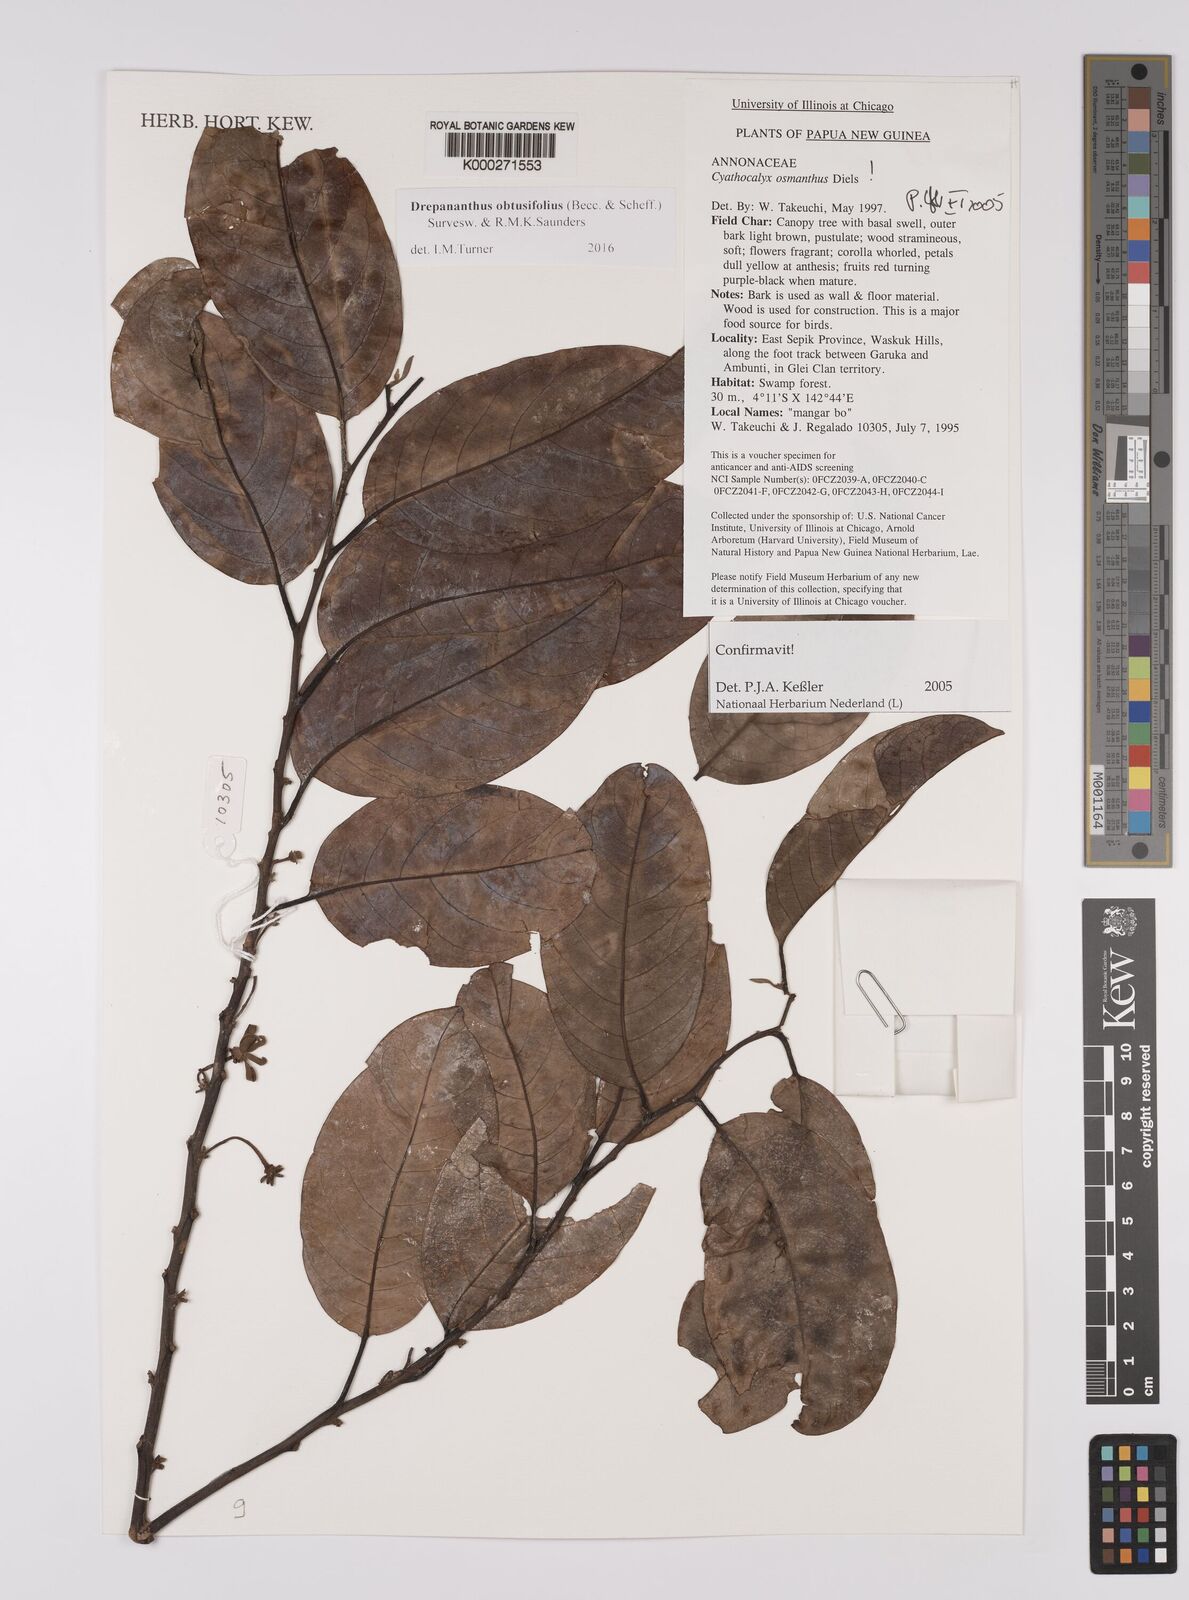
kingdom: Plantae
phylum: Tracheophyta
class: Magnoliopsida
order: Magnoliales
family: Annonaceae
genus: Drepananthus
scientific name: Drepananthus obtusifolius
